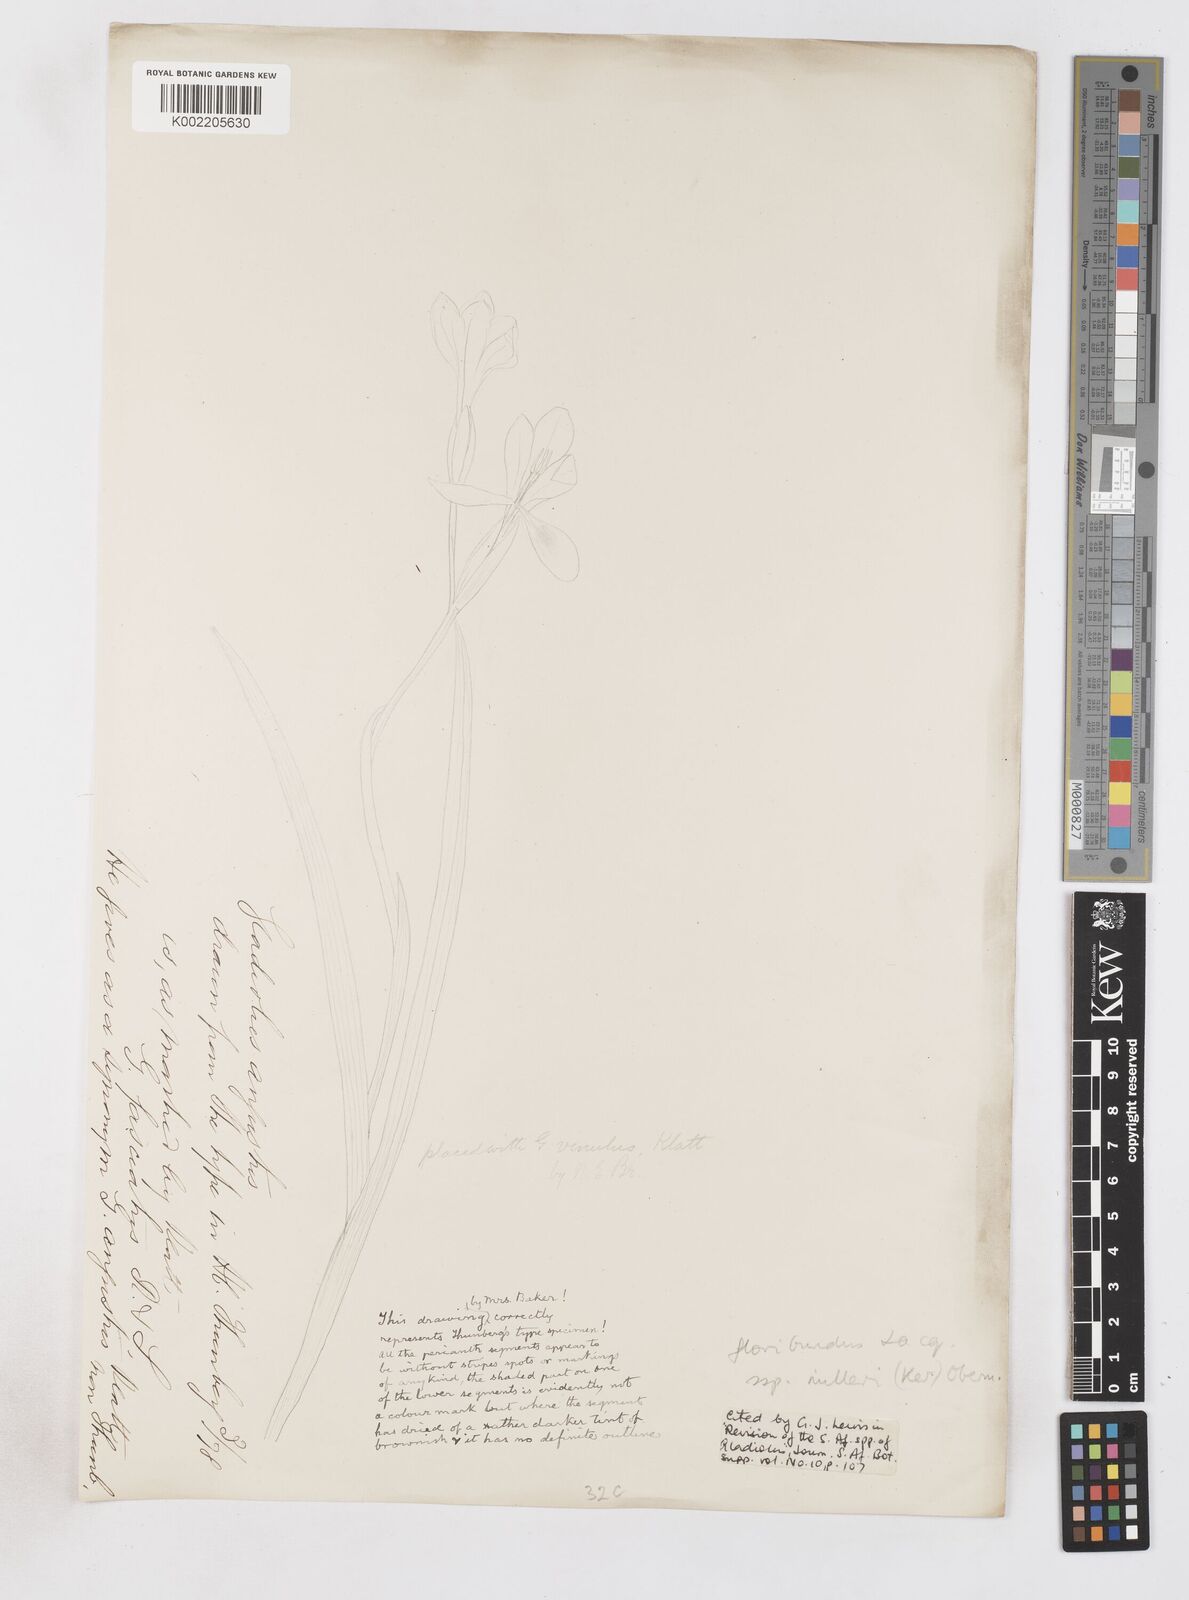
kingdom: Plantae
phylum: Tracheophyta
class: Liliopsida
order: Asparagales
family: Iridaceae
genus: Gladiolus
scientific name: Gladiolus grandiflorus
